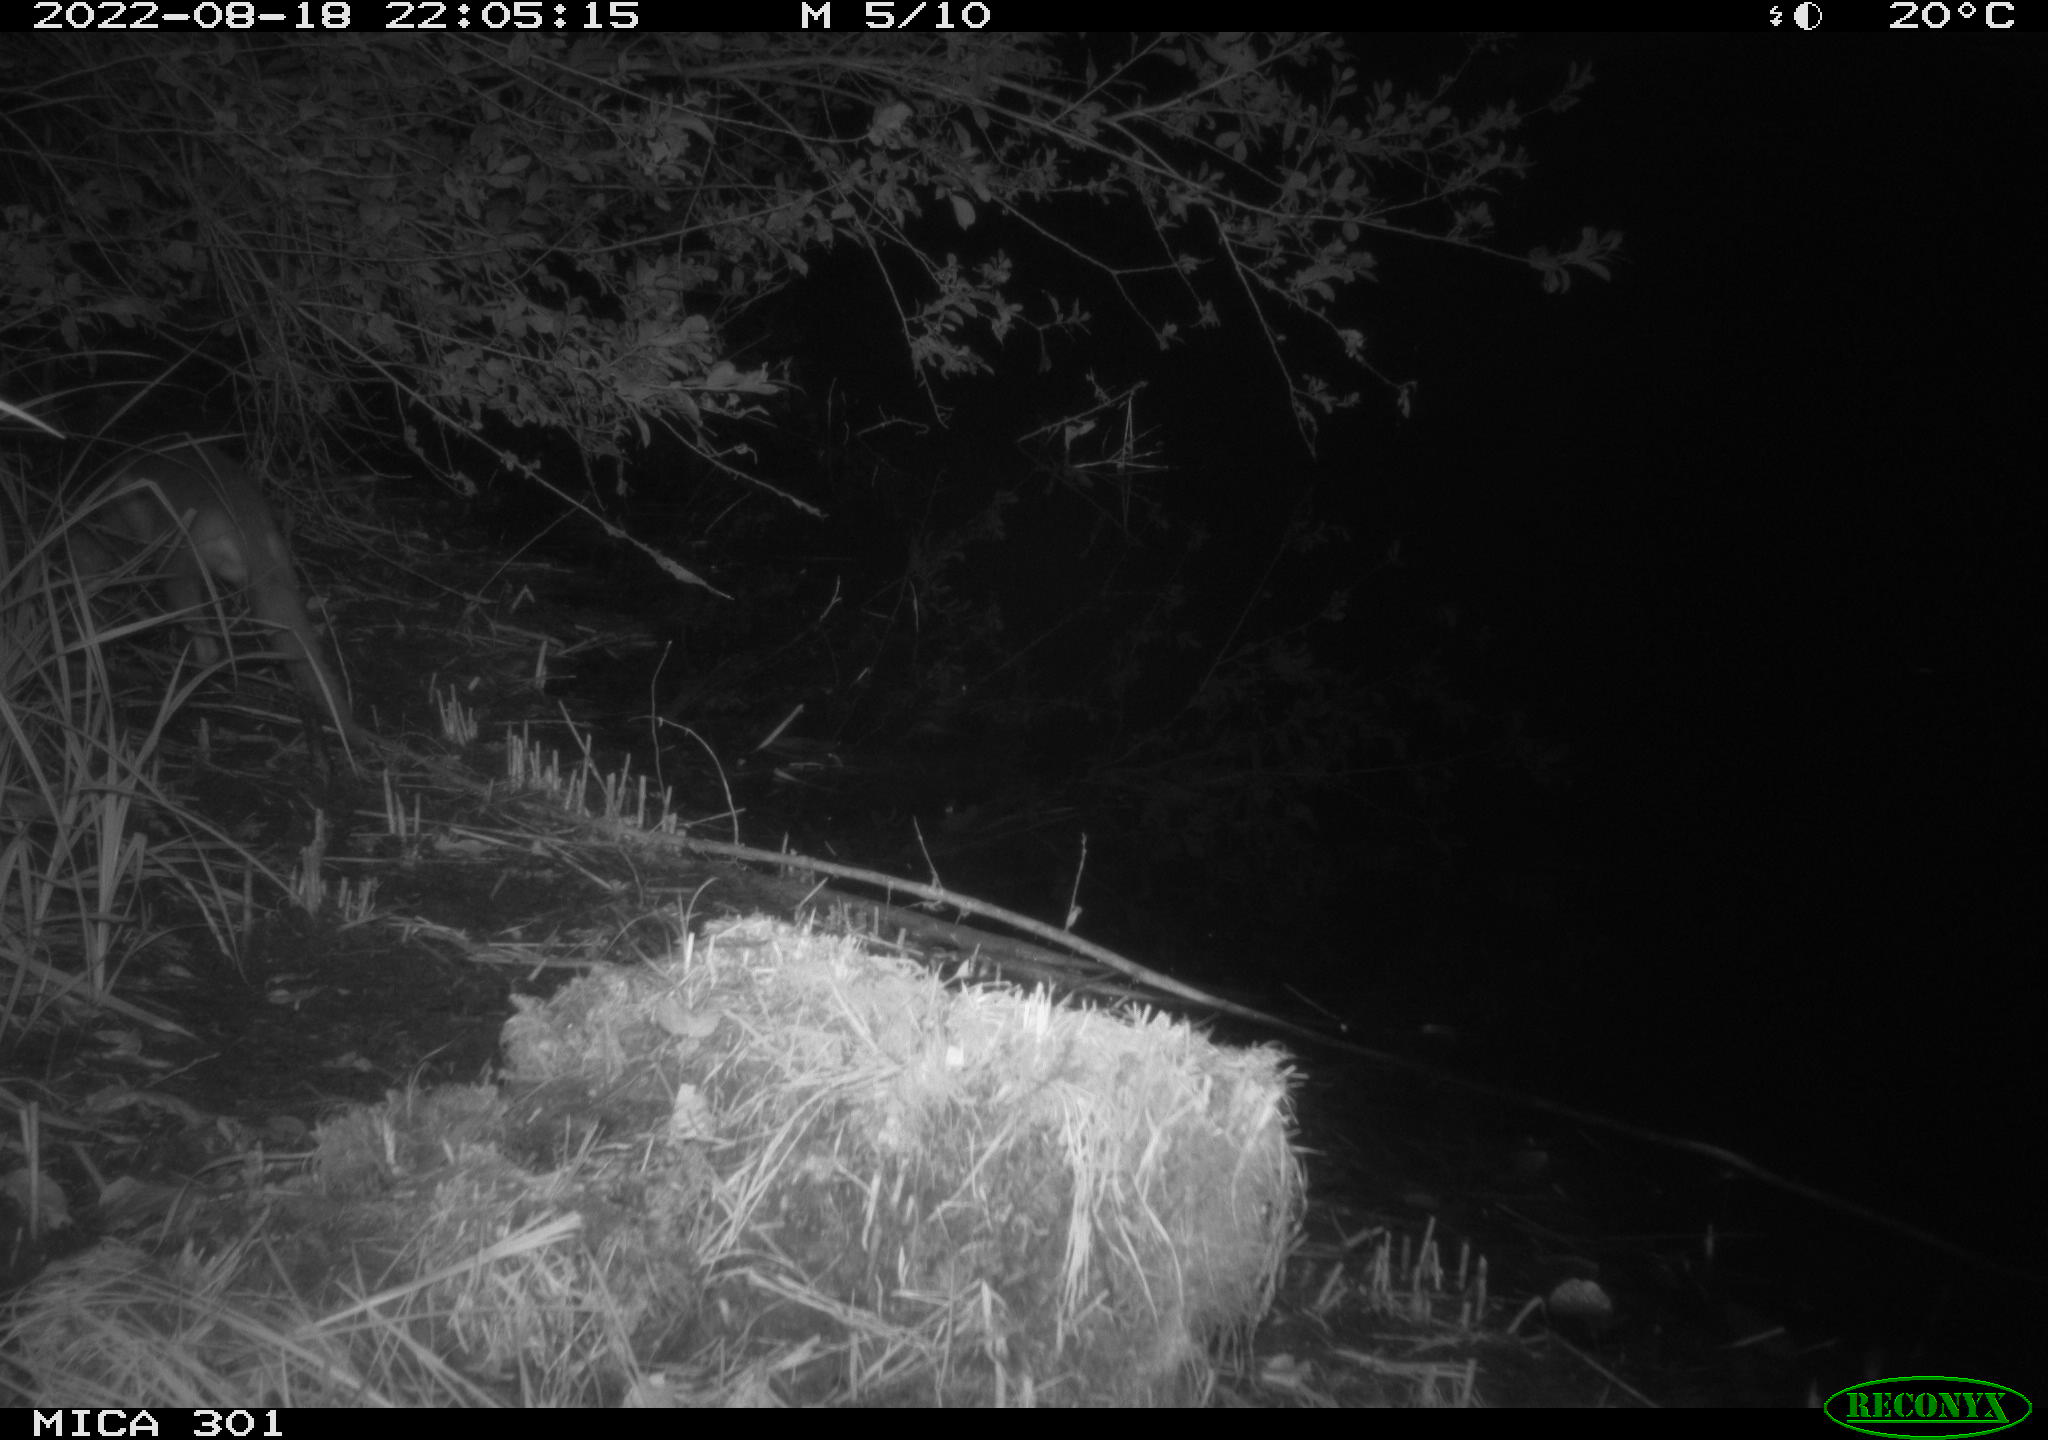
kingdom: Animalia
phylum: Chordata
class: Mammalia
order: Carnivora
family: Canidae
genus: Vulpes
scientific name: Vulpes vulpes
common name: Red fox
